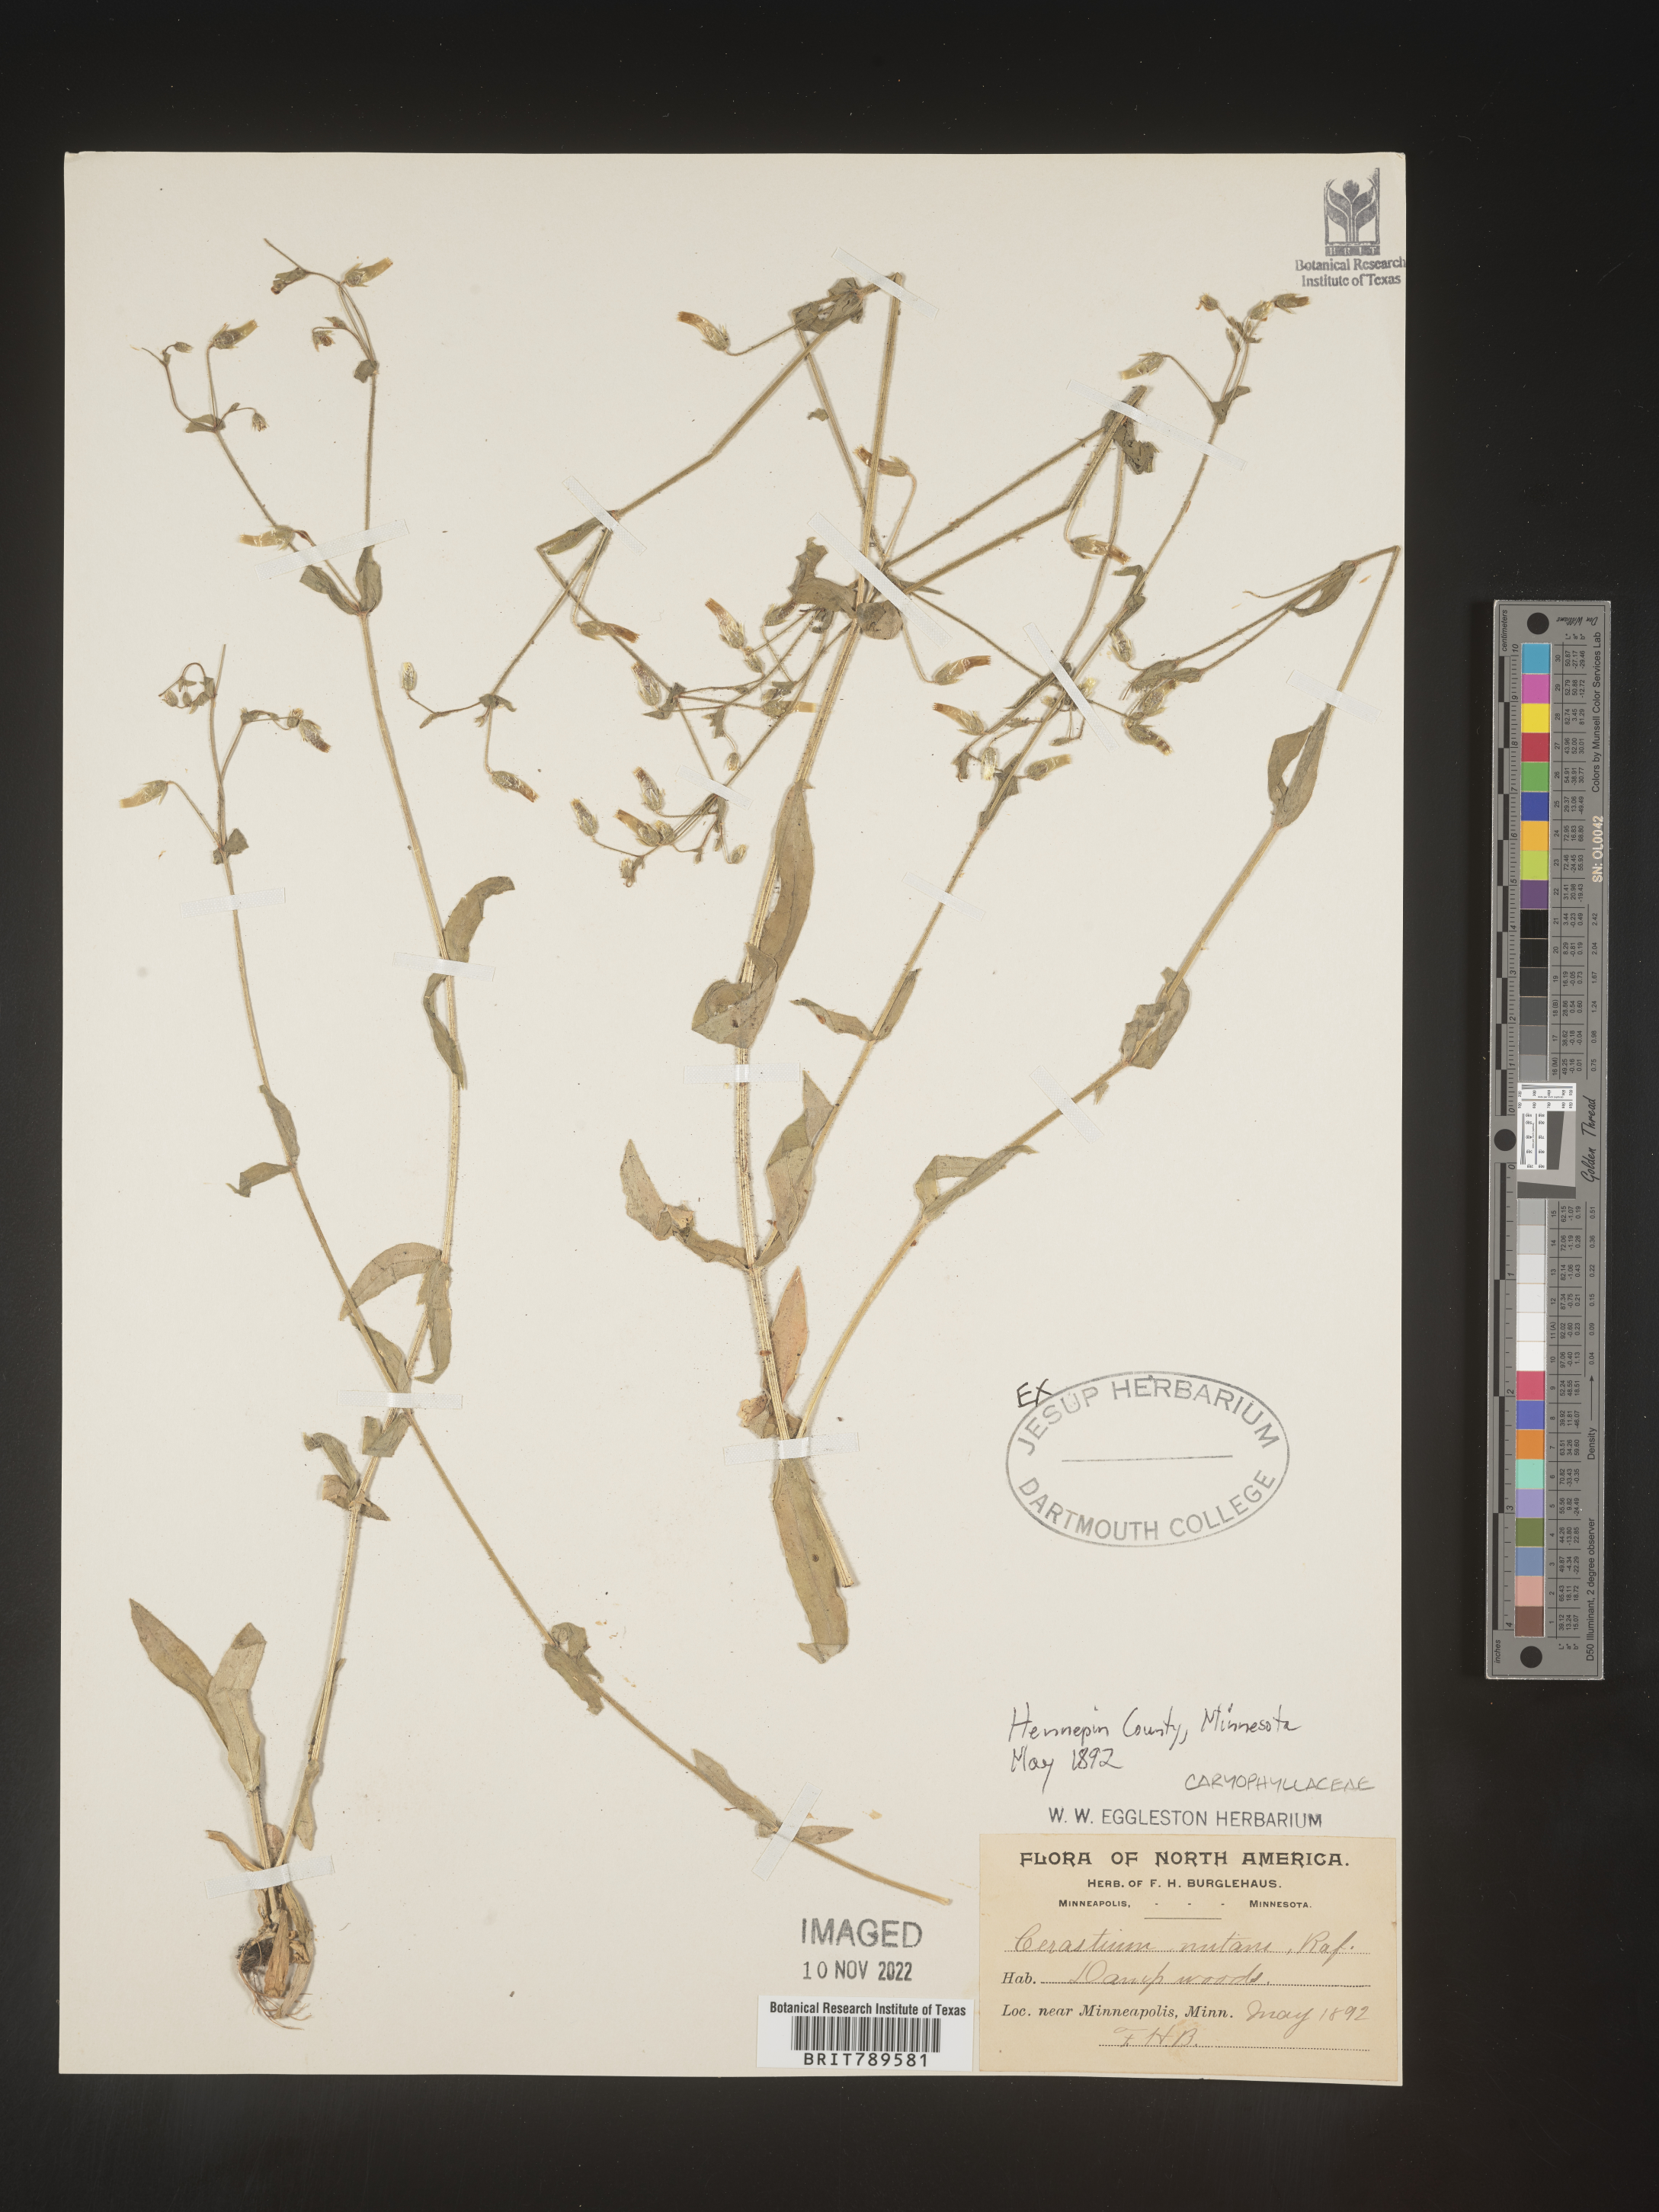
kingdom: Plantae
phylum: Tracheophyta
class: Magnoliopsida
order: Caryophyllales
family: Caryophyllaceae
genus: Cerastium
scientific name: Cerastium nutans
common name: Long-stalked chickweed
